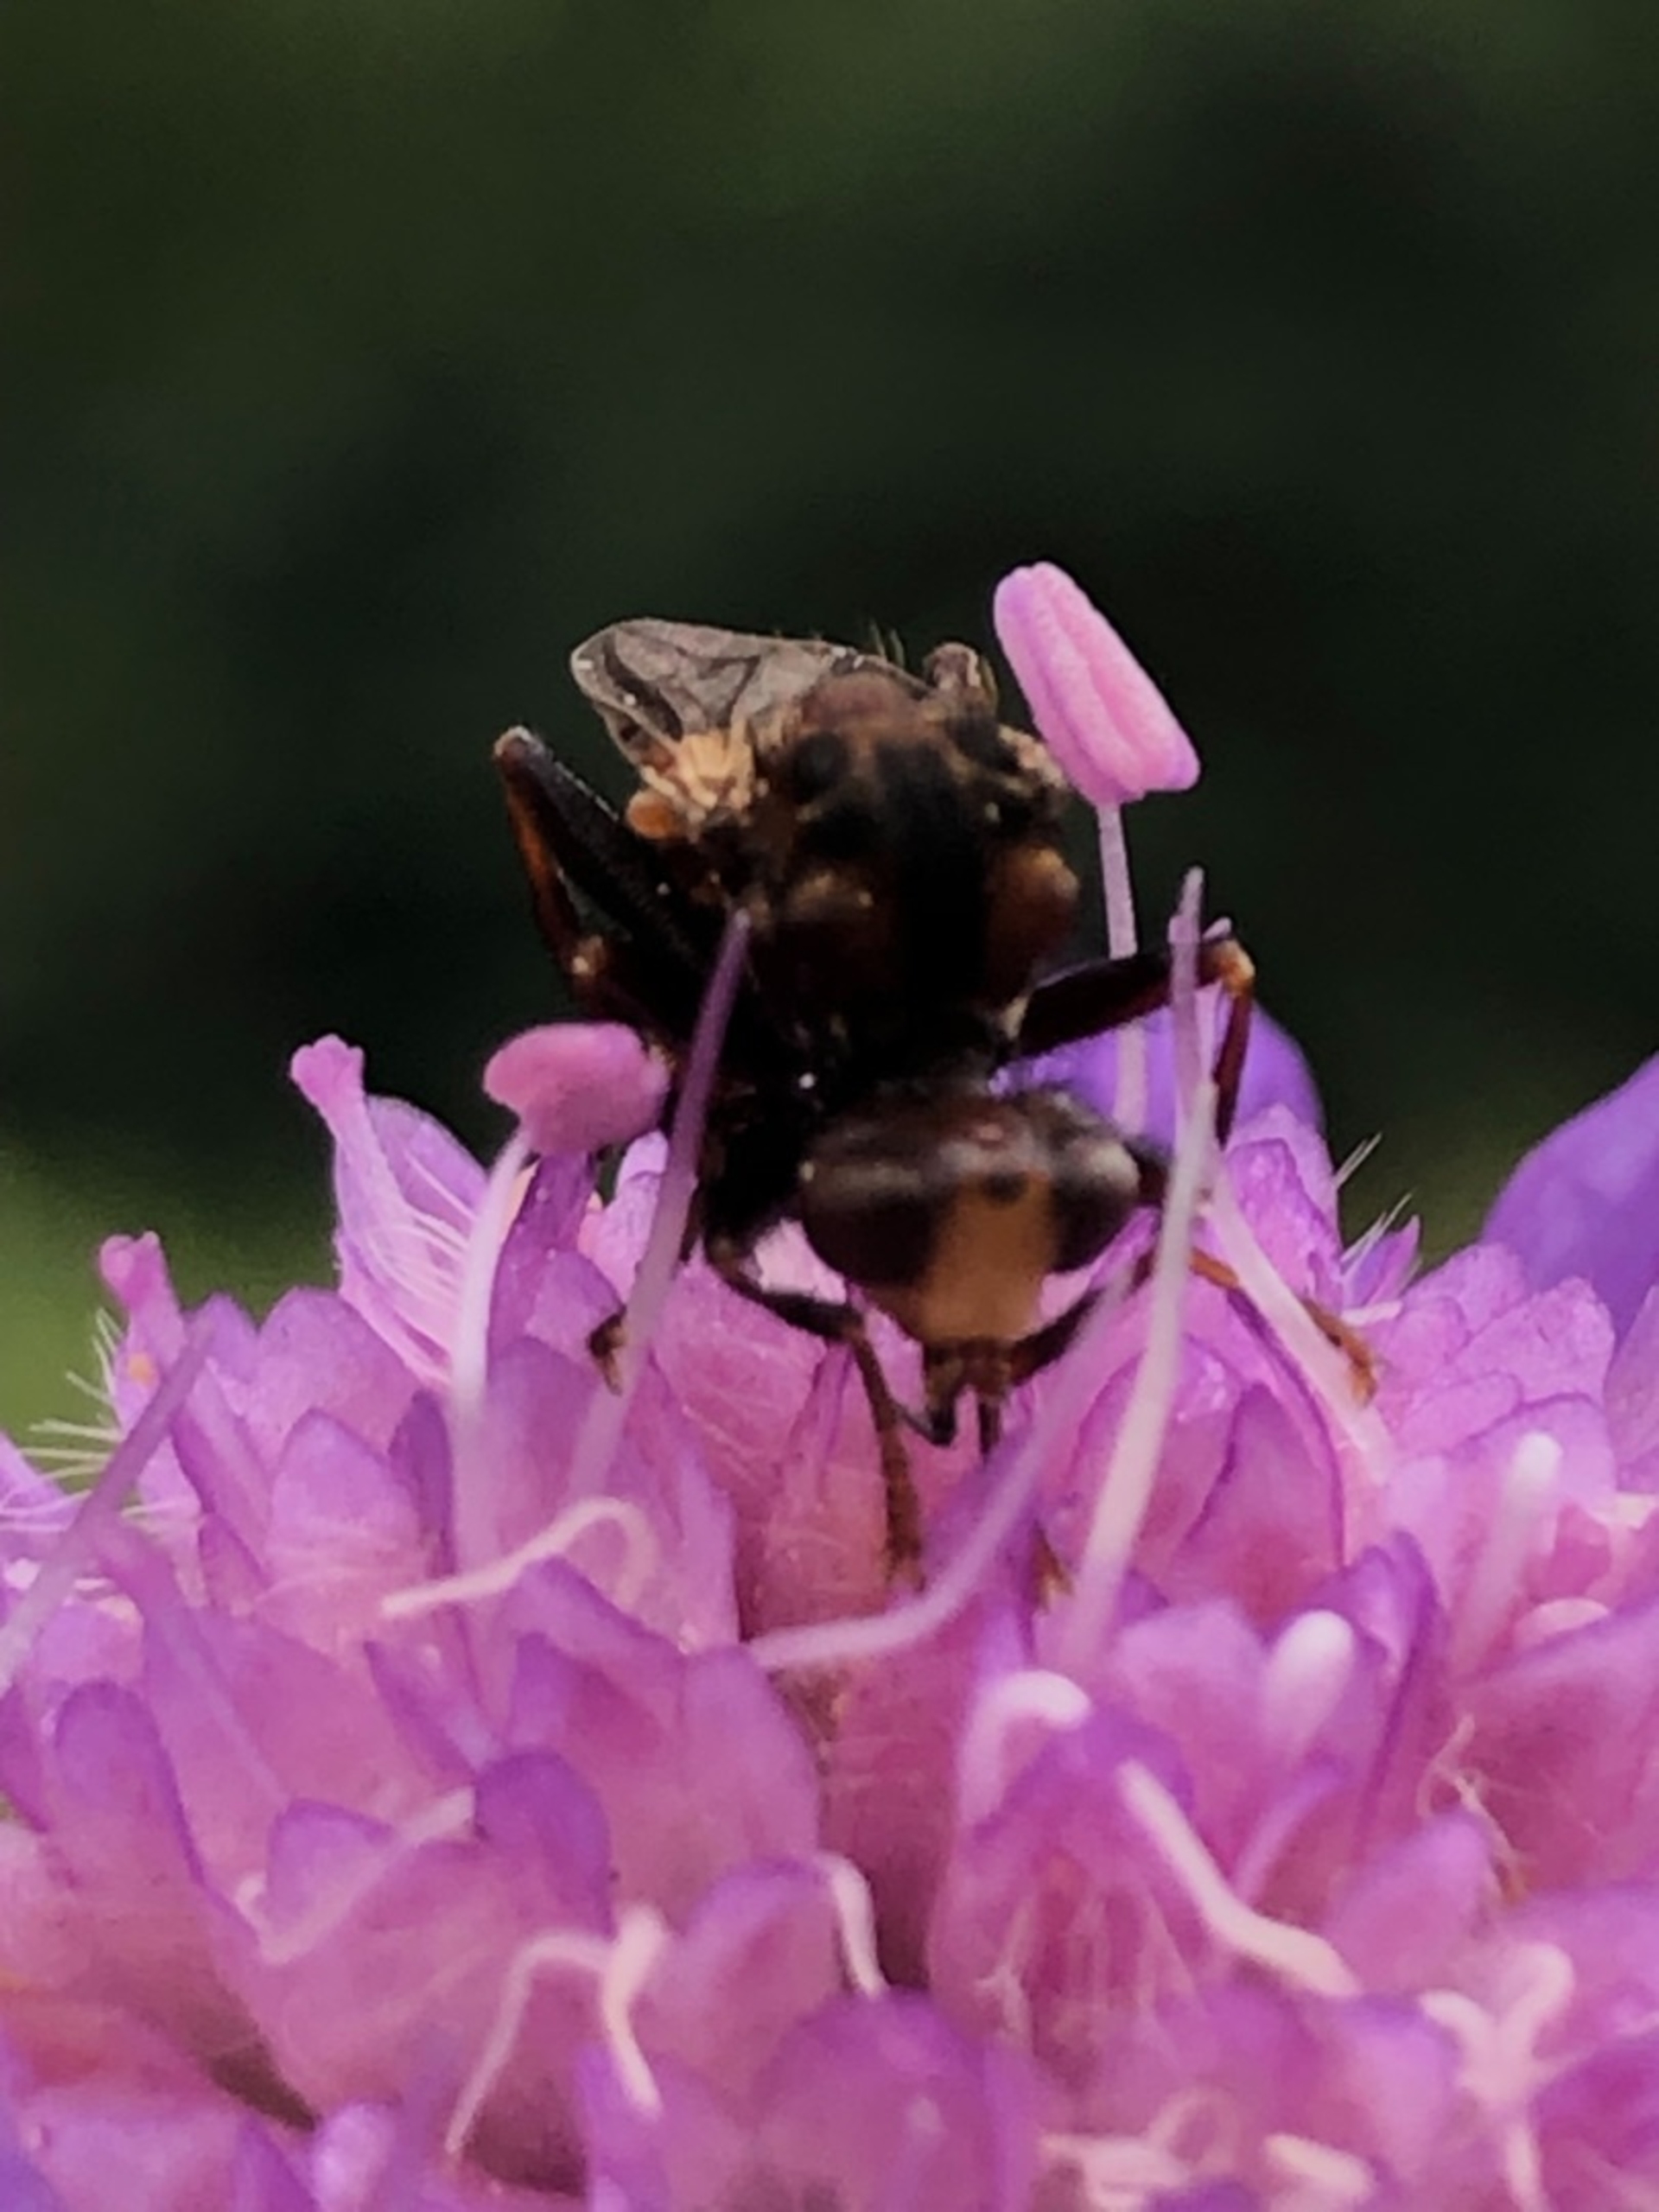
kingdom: Animalia
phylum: Arthropoda
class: Insecta
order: Diptera
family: Conopidae
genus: Sicus
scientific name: Sicus ferrugineus
